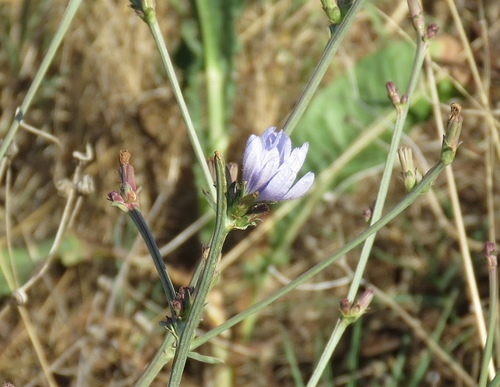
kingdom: Plantae
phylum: Tracheophyta
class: Magnoliopsida
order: Asterales
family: Asteraceae
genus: Cichorium
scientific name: Cichorium intybus
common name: Chicory
